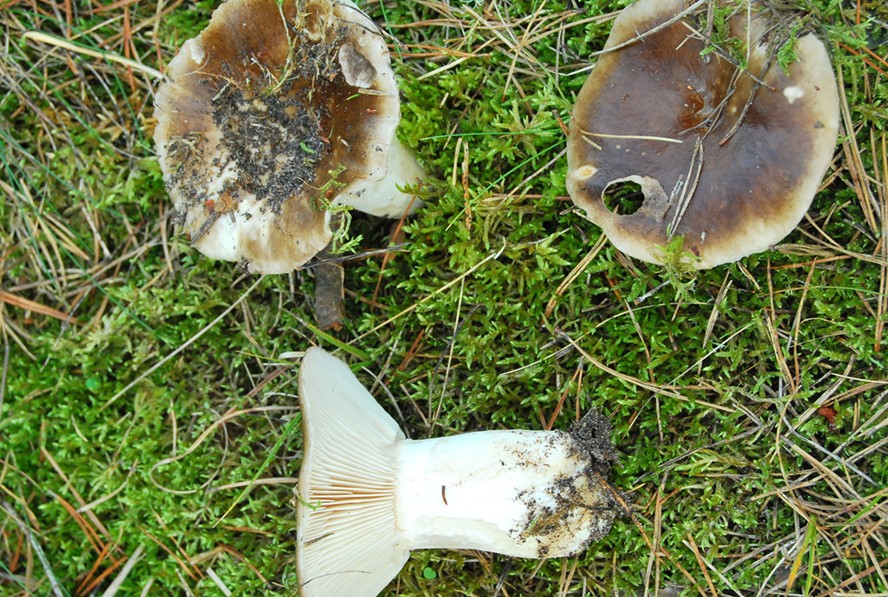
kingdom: Fungi
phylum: Basidiomycota
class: Agaricomycetes
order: Russulales
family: Russulaceae
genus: Russula
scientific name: Russula adusta
